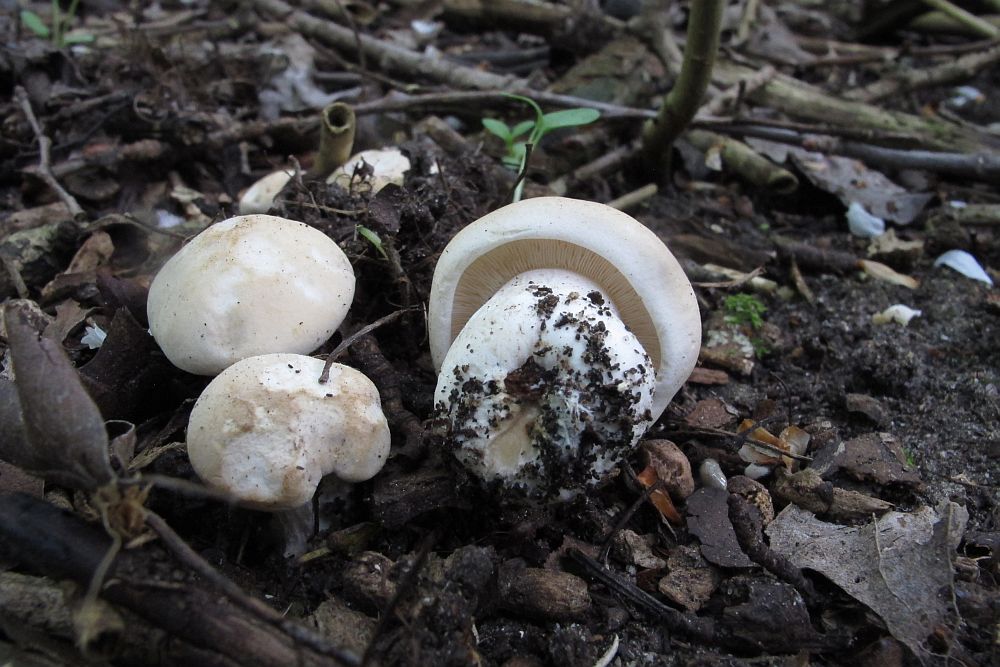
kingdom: Fungi
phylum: Basidiomycota
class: Agaricomycetes
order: Agaricales
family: Lyophyllaceae
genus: Calocybe
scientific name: Calocybe gambosa
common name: vårmusseron
